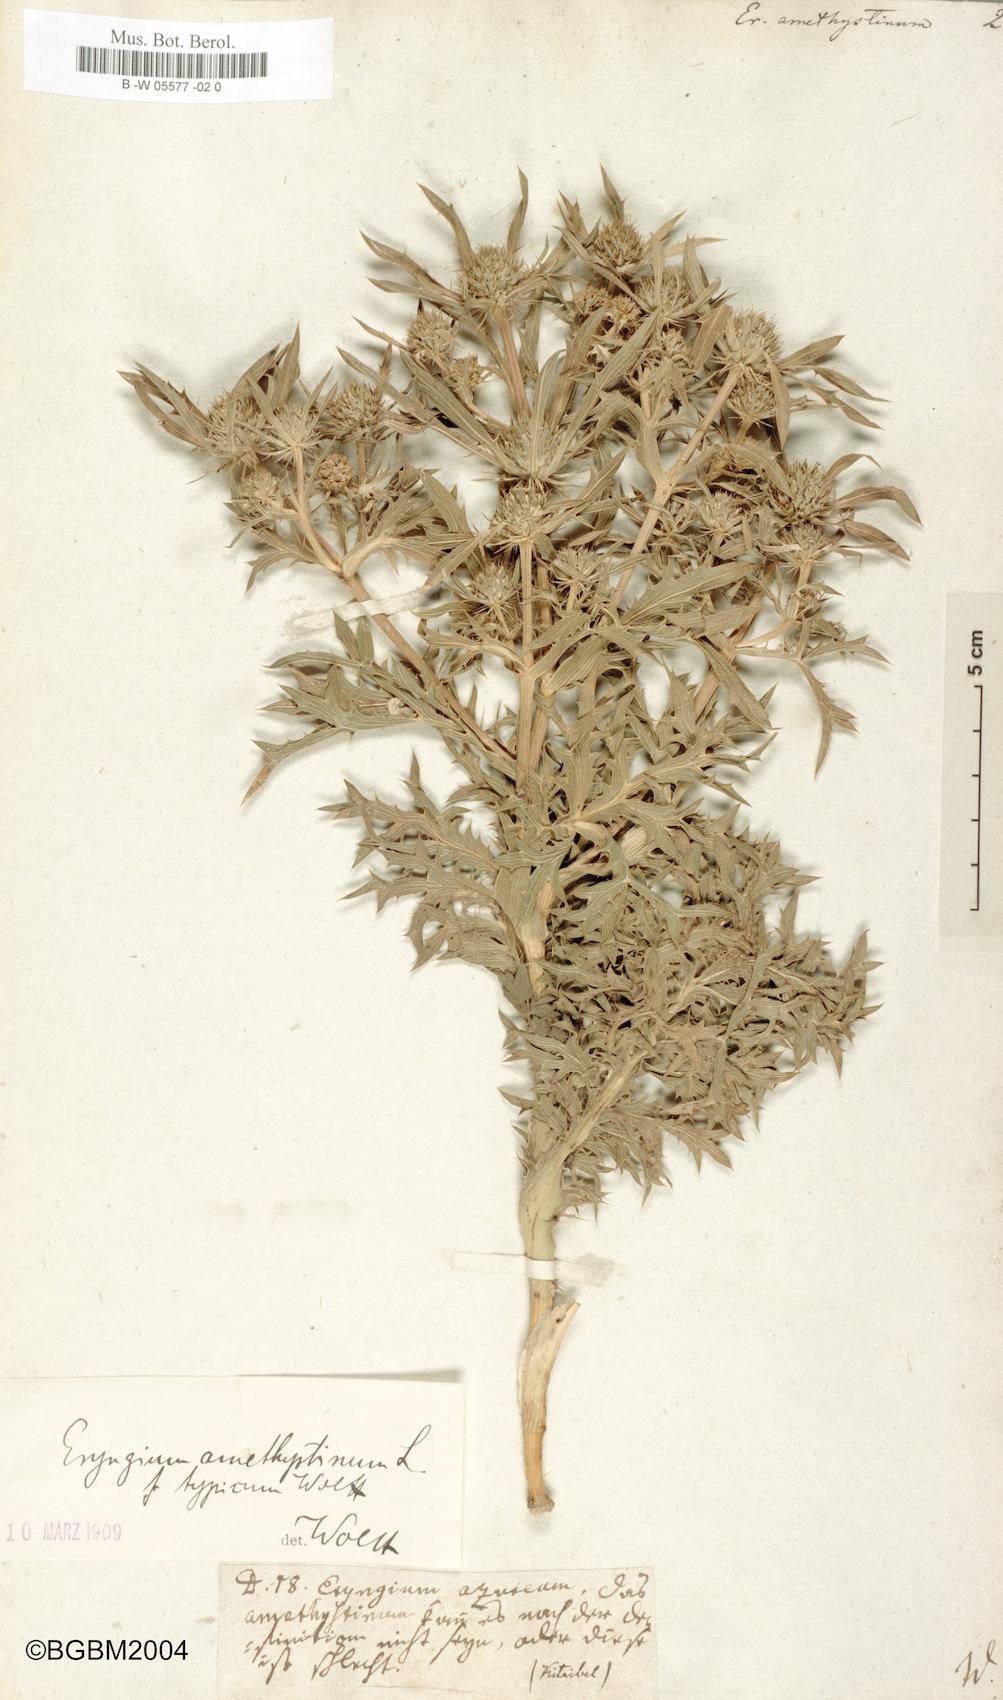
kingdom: Plantae
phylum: Tracheophyta
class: Magnoliopsida
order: Apiales
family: Apiaceae
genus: Eryngium
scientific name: Eryngium amethystinum
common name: Amethyst eryngo
